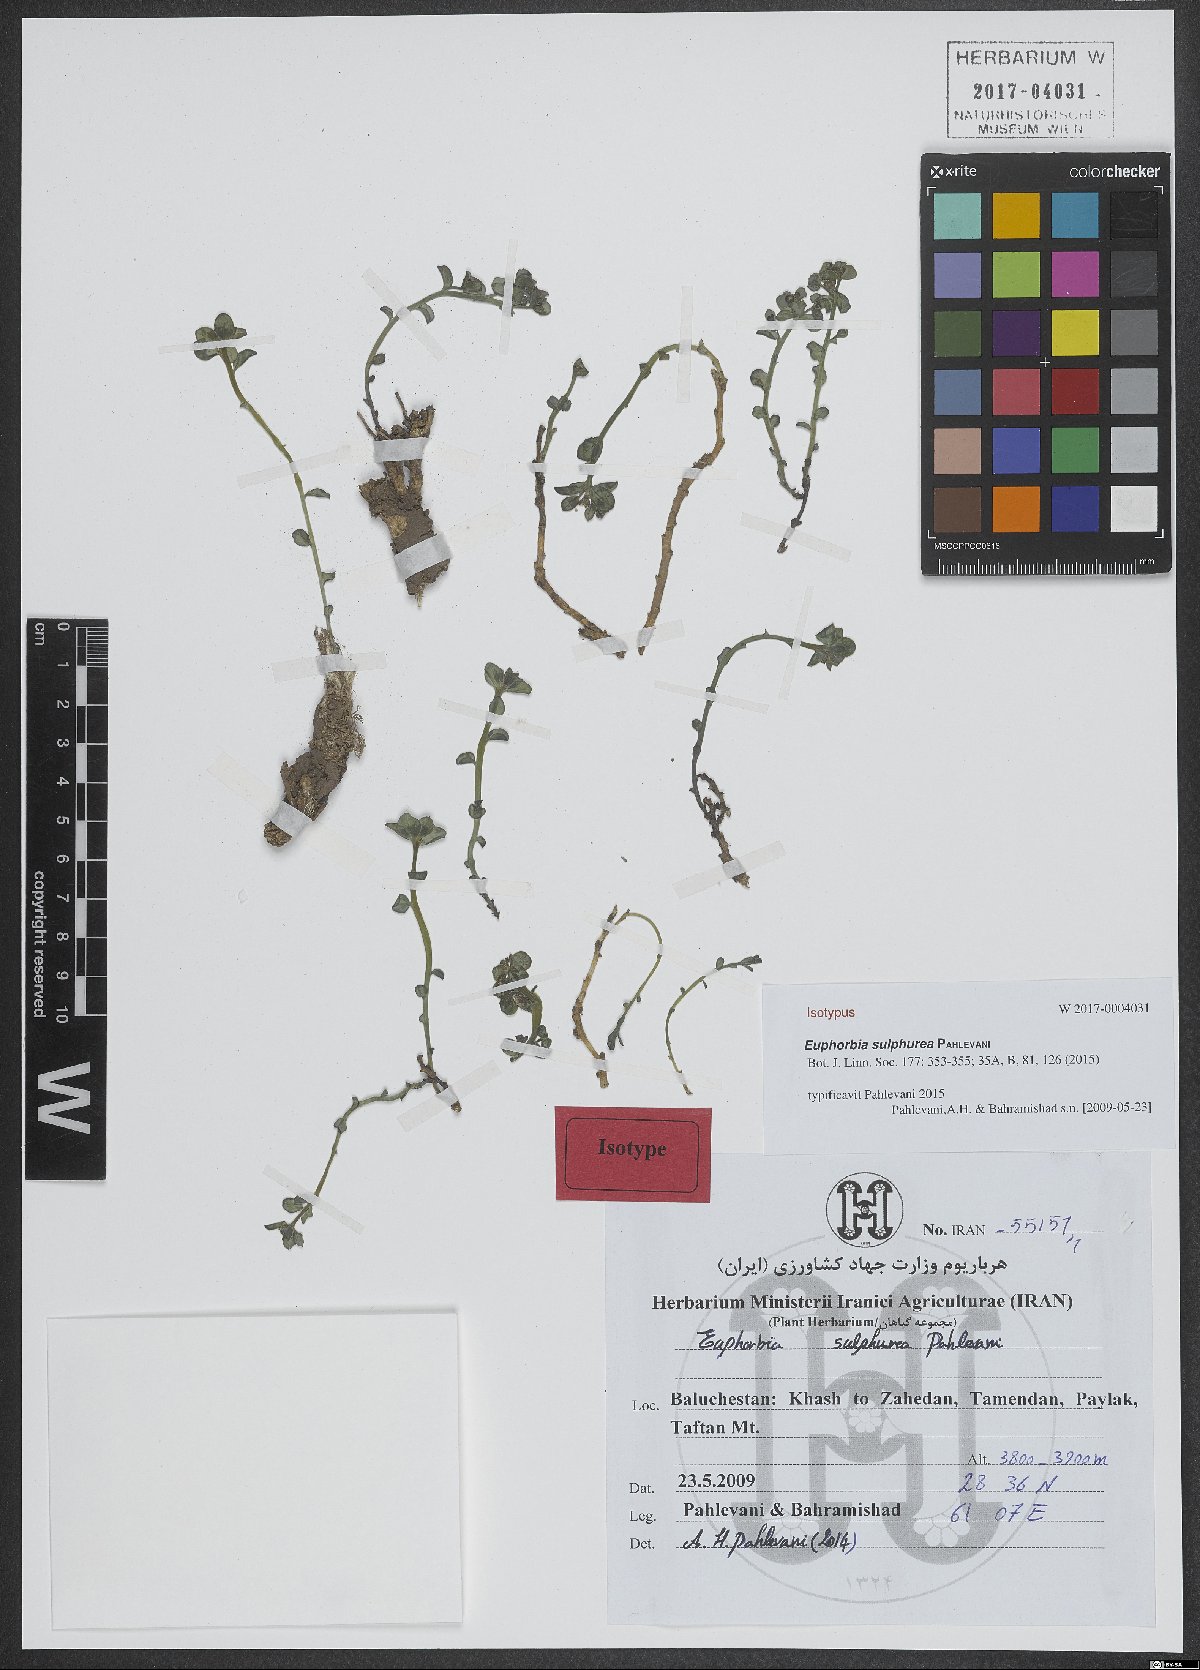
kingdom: Plantae
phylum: Tracheophyta
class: Magnoliopsida
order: Malpighiales
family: Euphorbiaceae
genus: Euphorbia
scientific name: Euphorbia sulphurea
